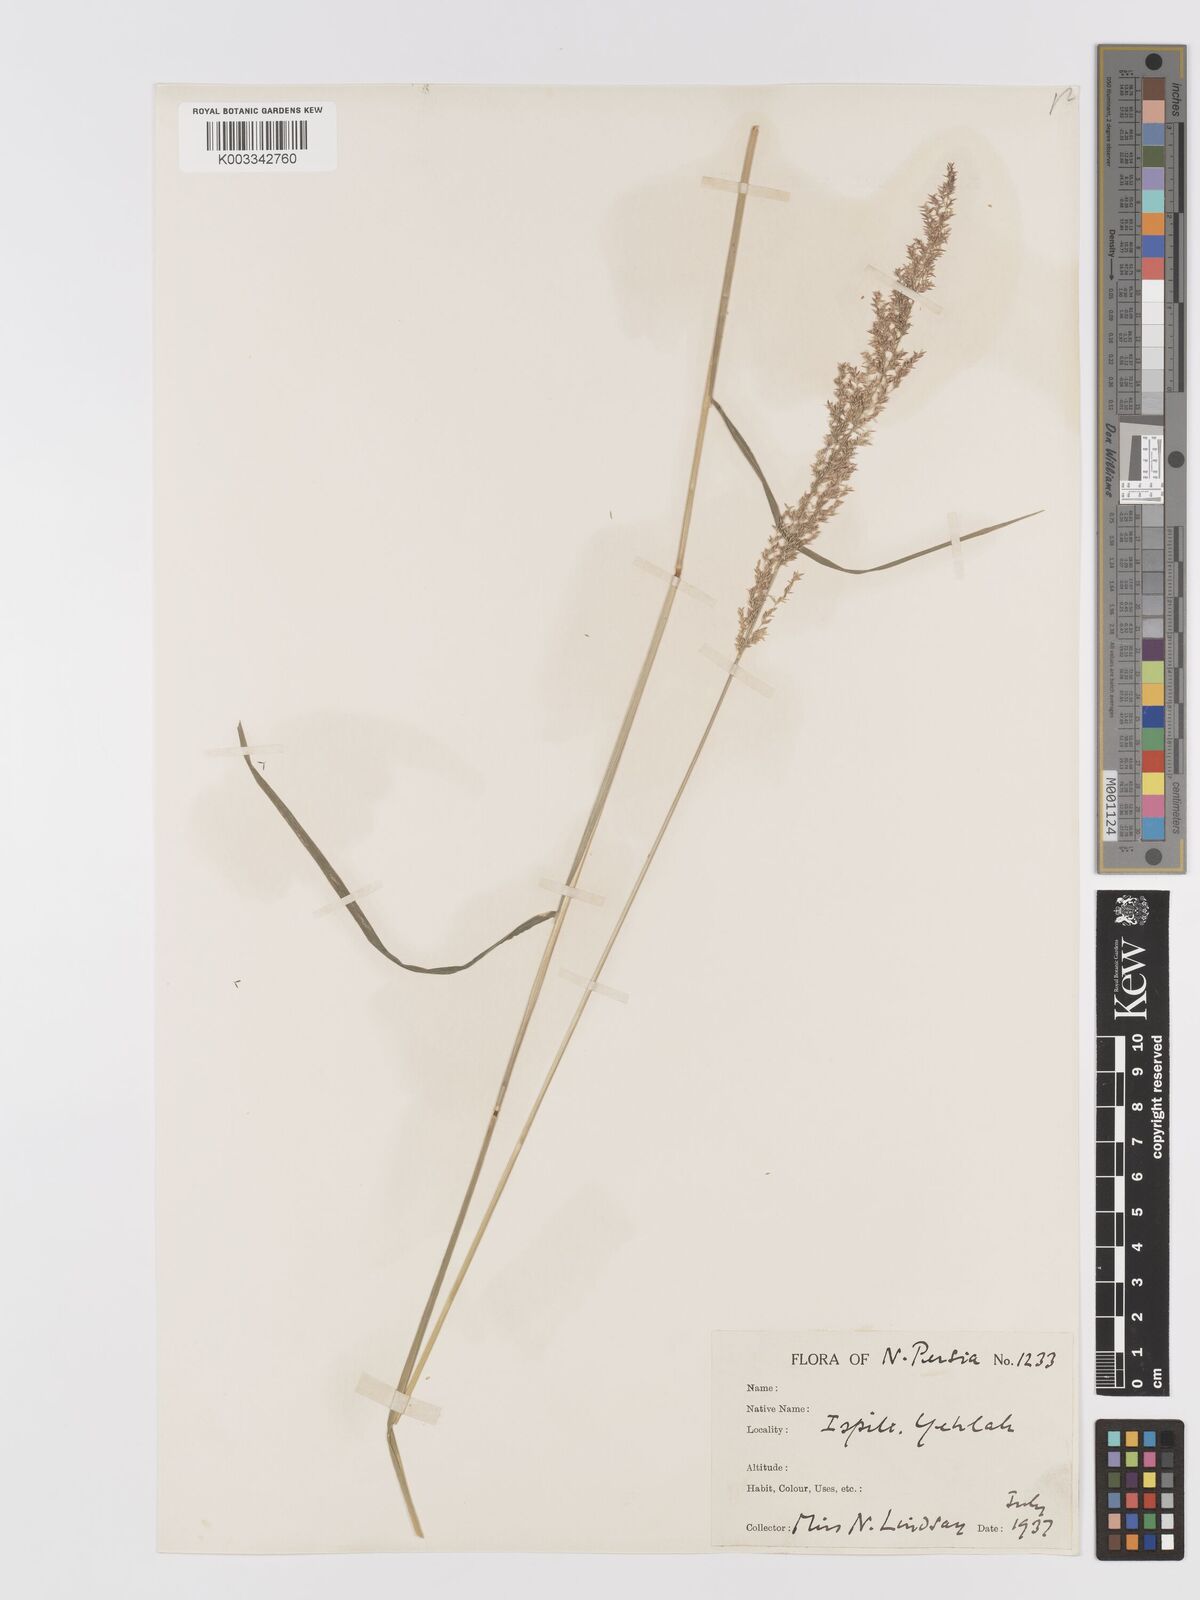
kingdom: Plantae
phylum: Tracheophyta
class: Liliopsida
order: Poales
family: Poaceae
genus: Agrostis
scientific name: Agrostis stolonifera
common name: Creeping bentgrass
